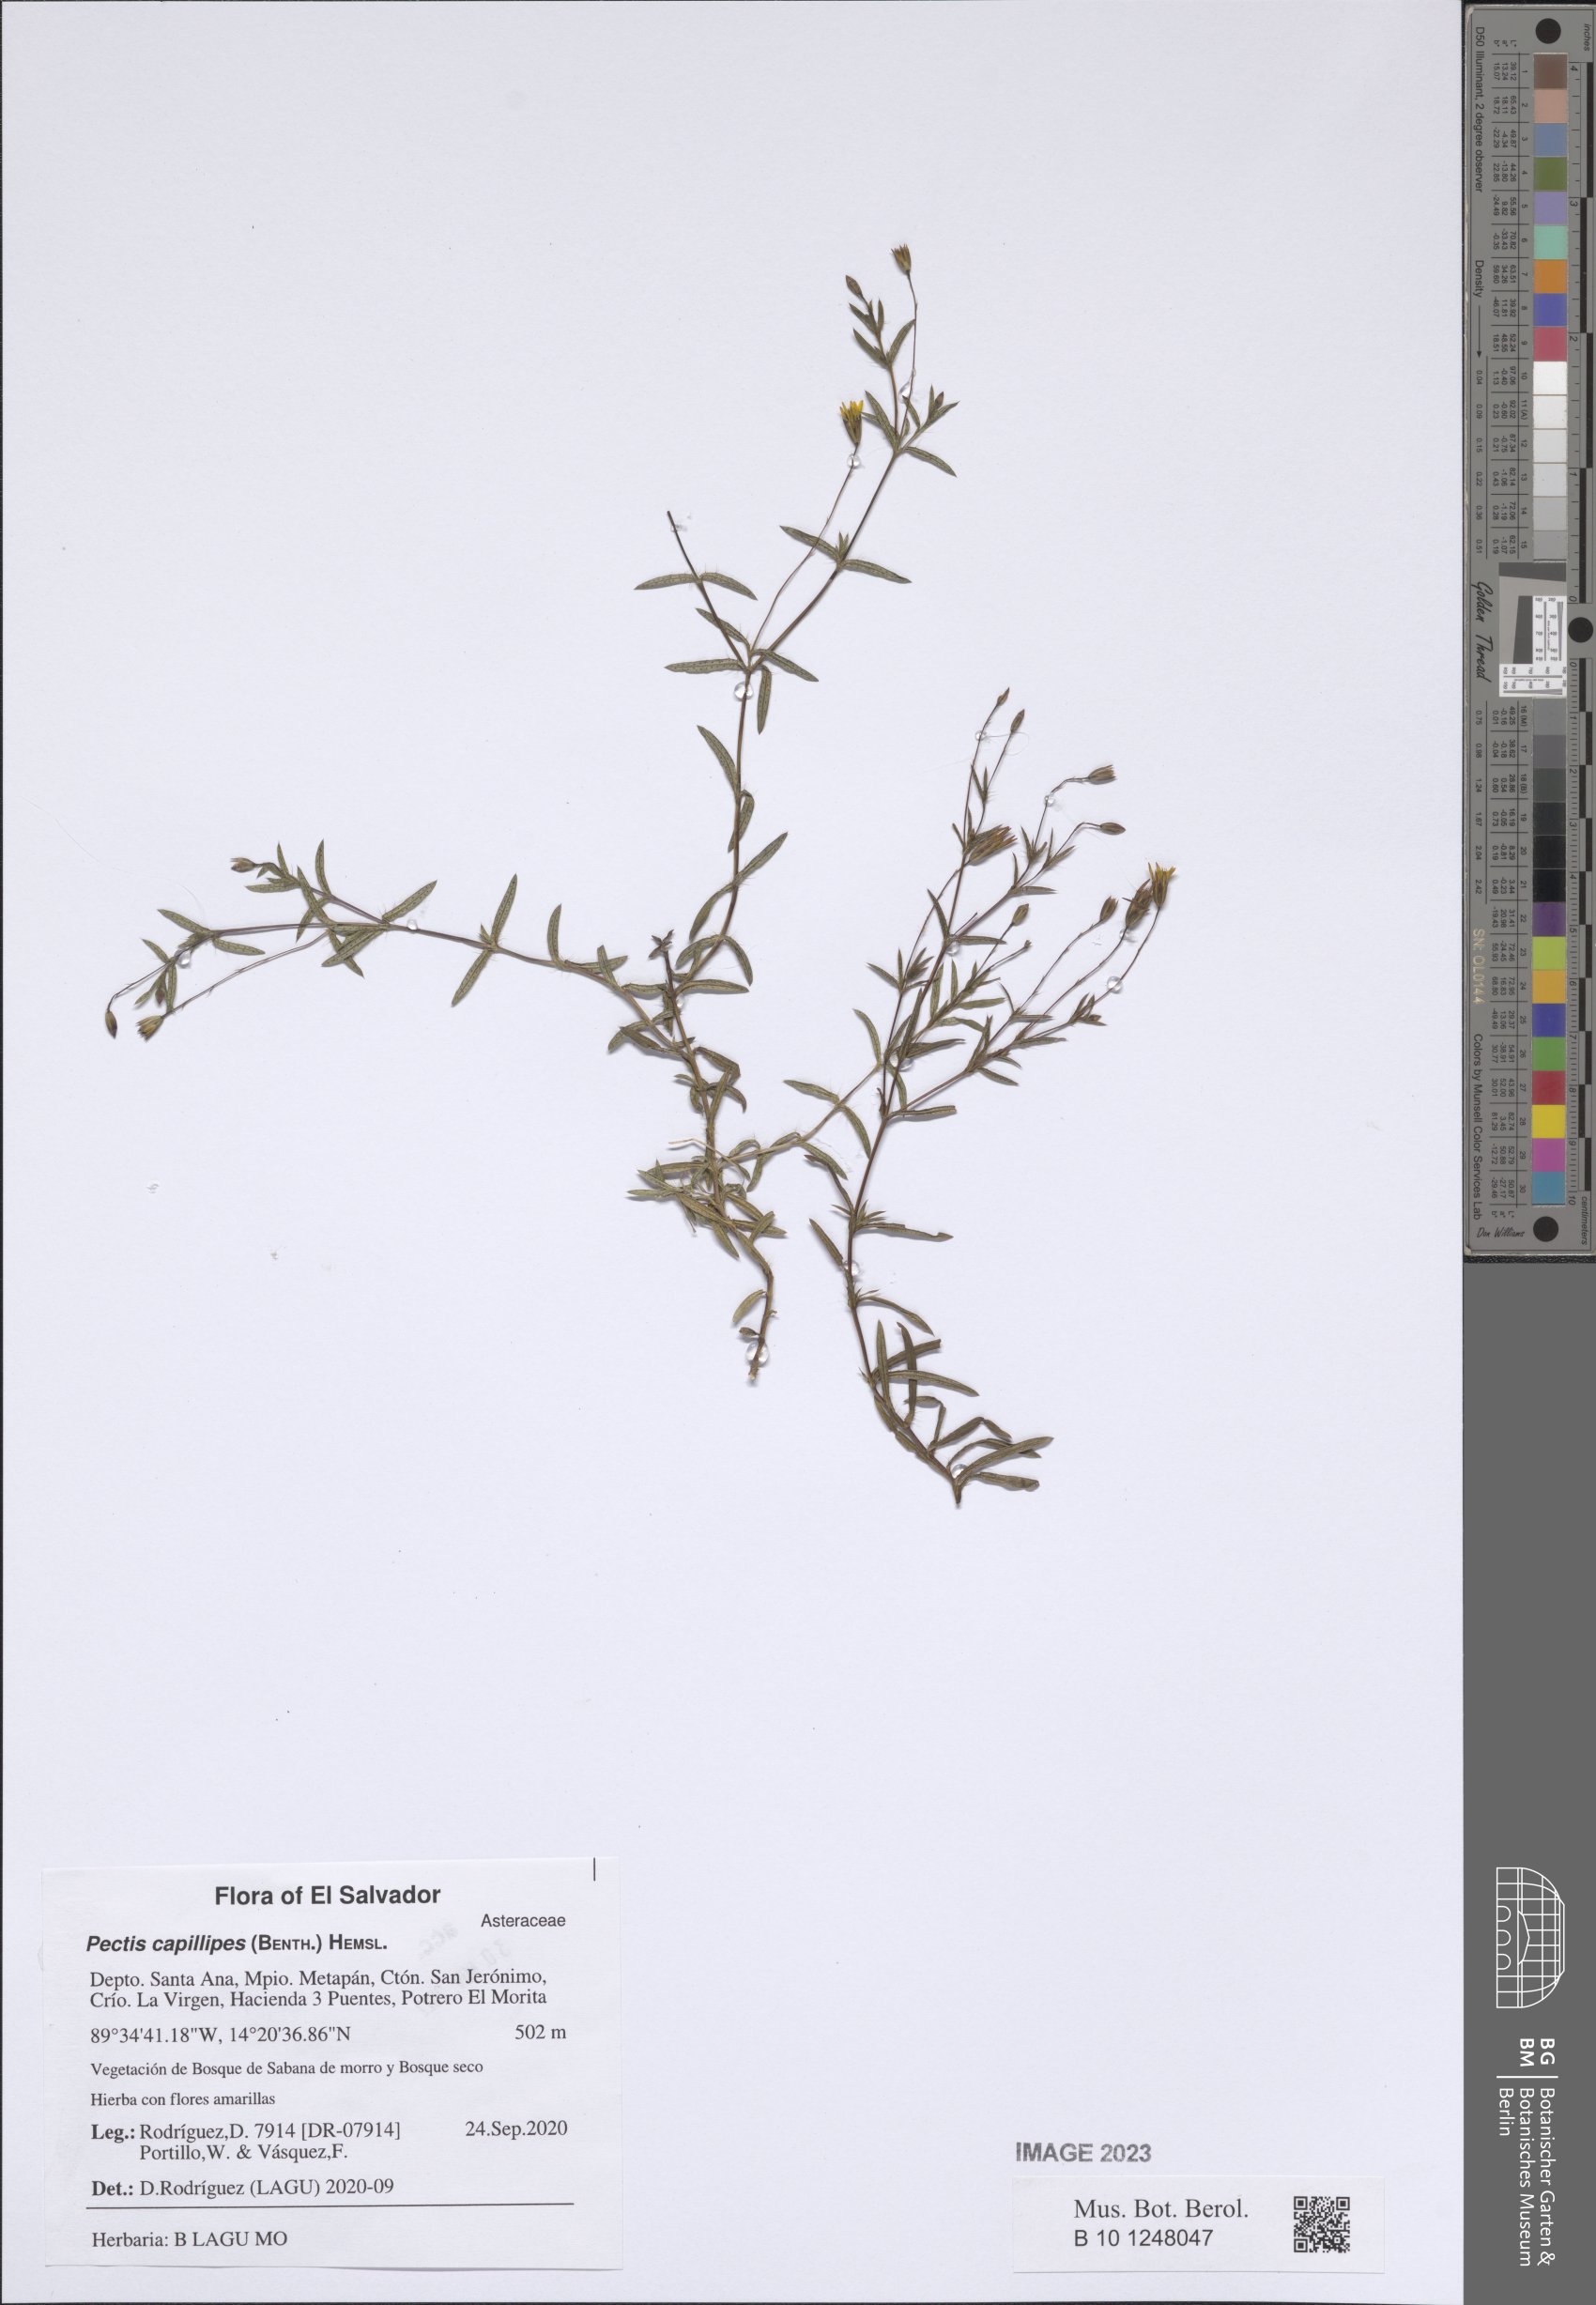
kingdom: Plantae
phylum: Tracheophyta
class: Magnoliopsida
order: Asterales
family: Asteraceae
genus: Pectis
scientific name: Pectis capillipes
